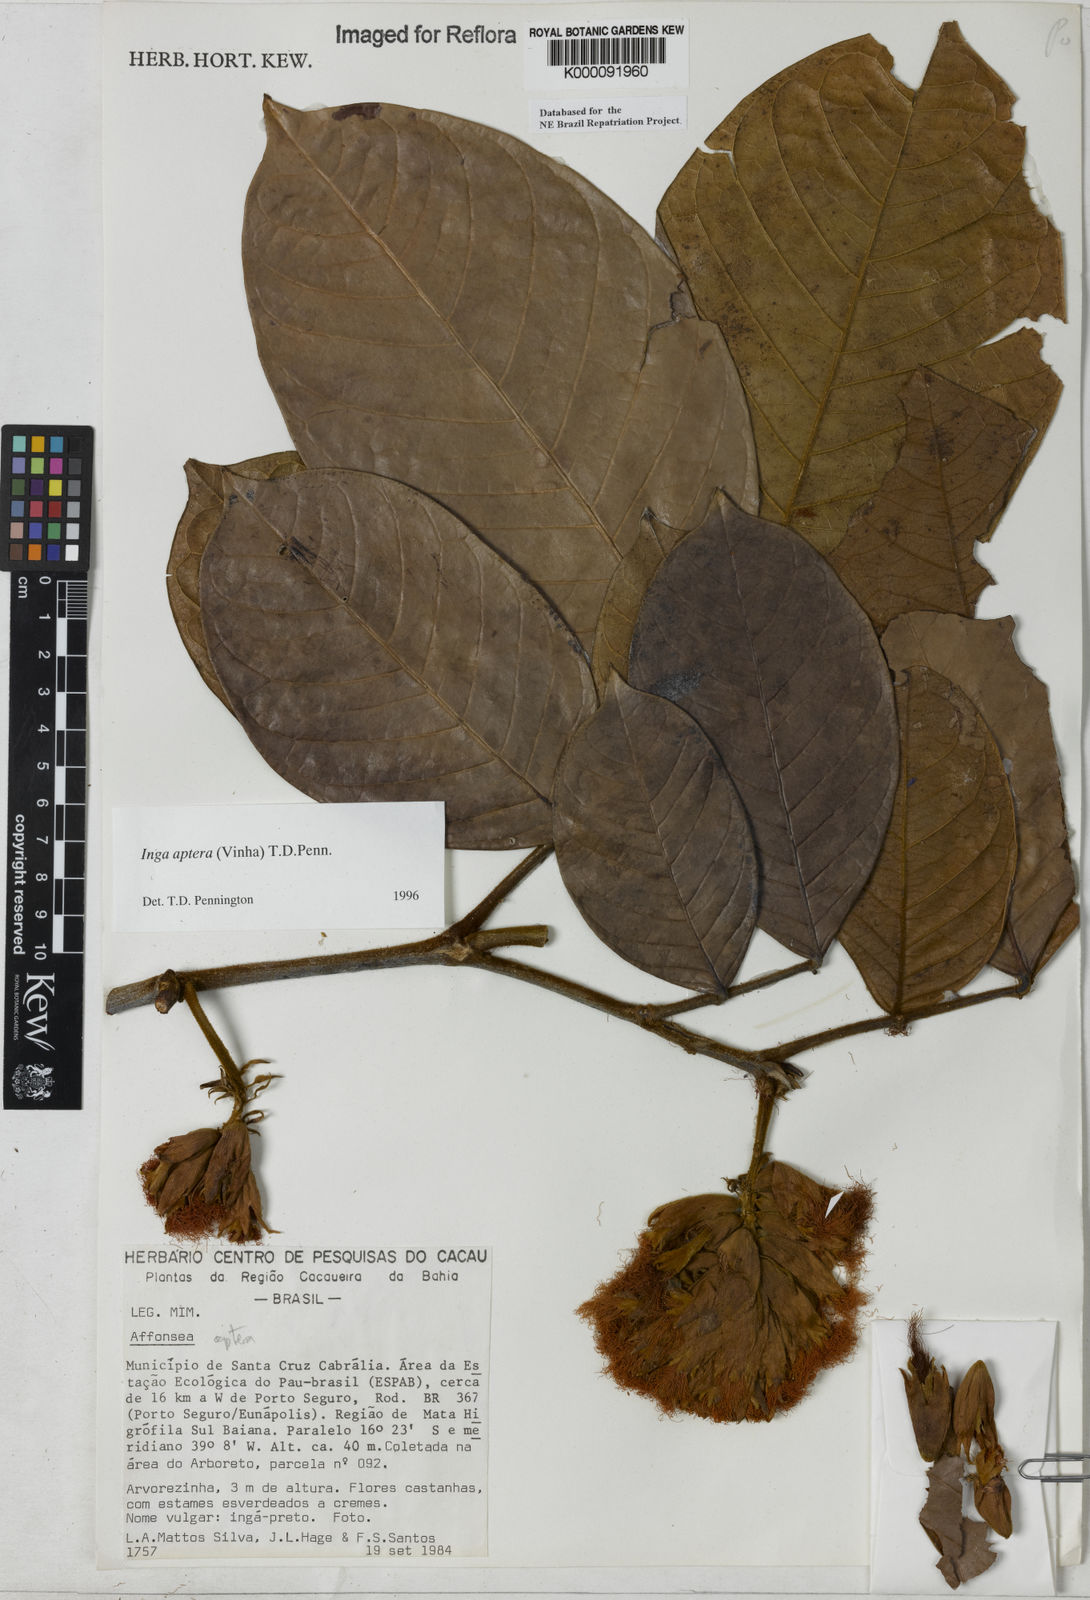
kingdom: Plantae
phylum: Tracheophyta
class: Magnoliopsida
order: Fabales
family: Fabaceae
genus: Inga
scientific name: Inga aptera
